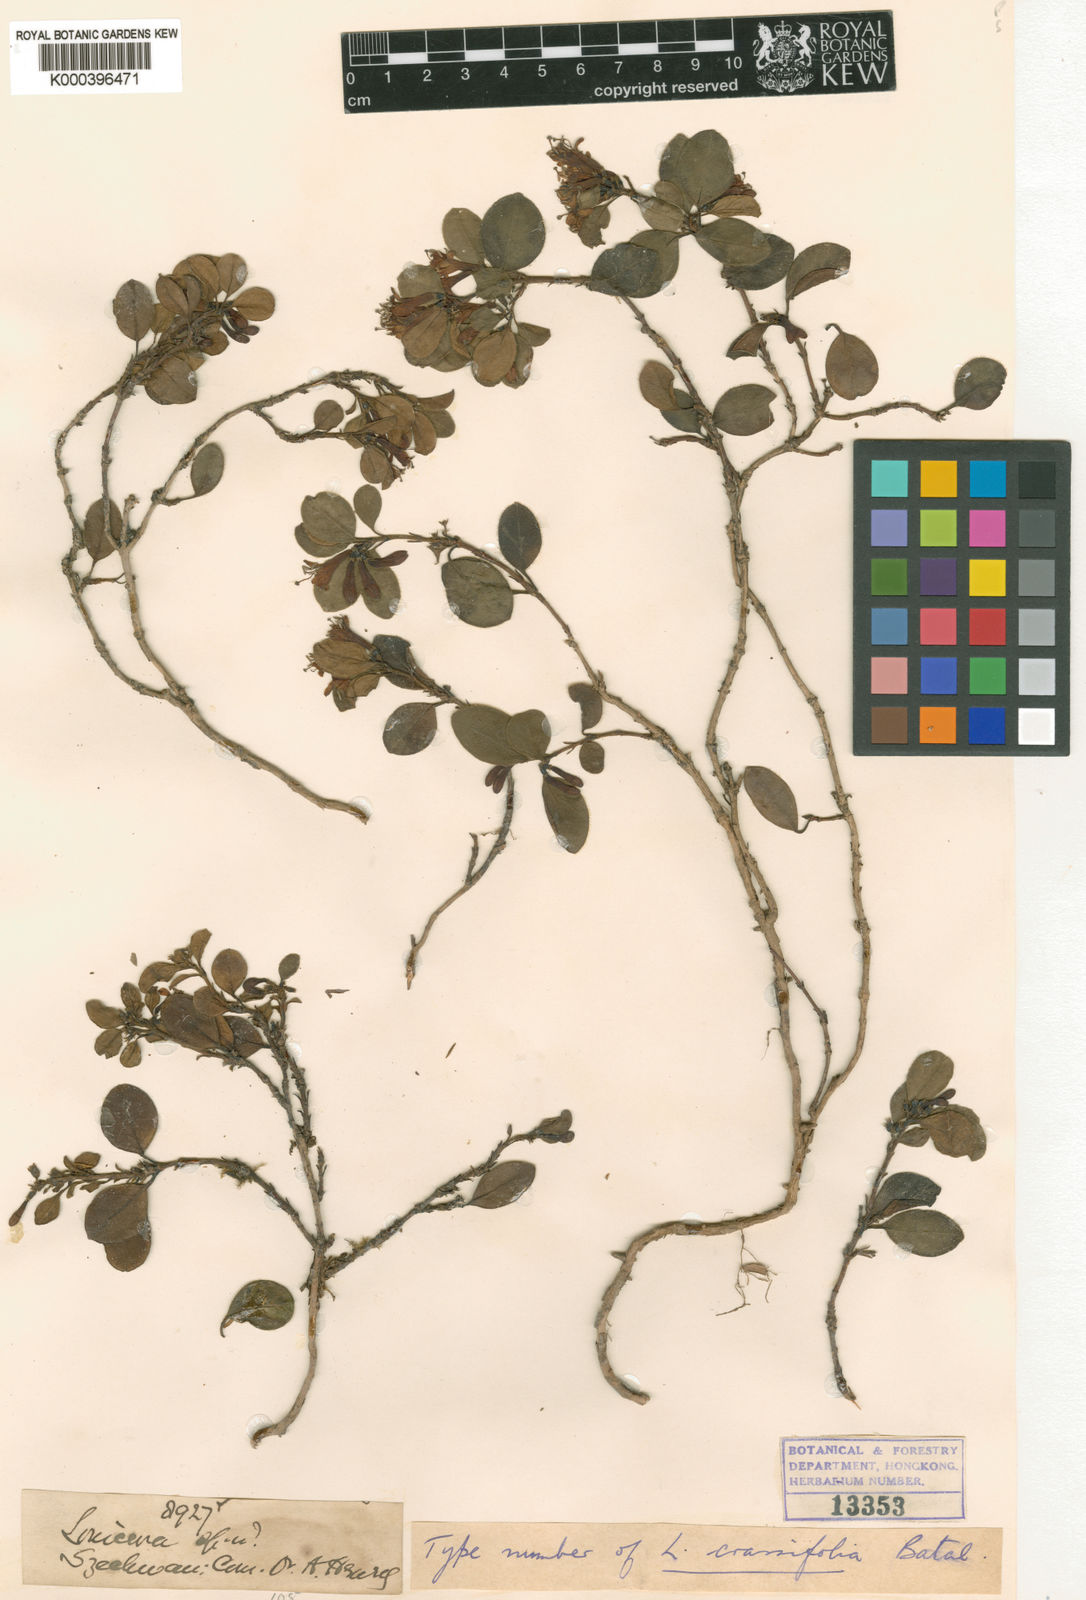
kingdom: Plantae
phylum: Tracheophyta
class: Magnoliopsida
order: Dipsacales
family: Caprifoliaceae
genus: Lonicera
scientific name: Lonicera crassifolia
